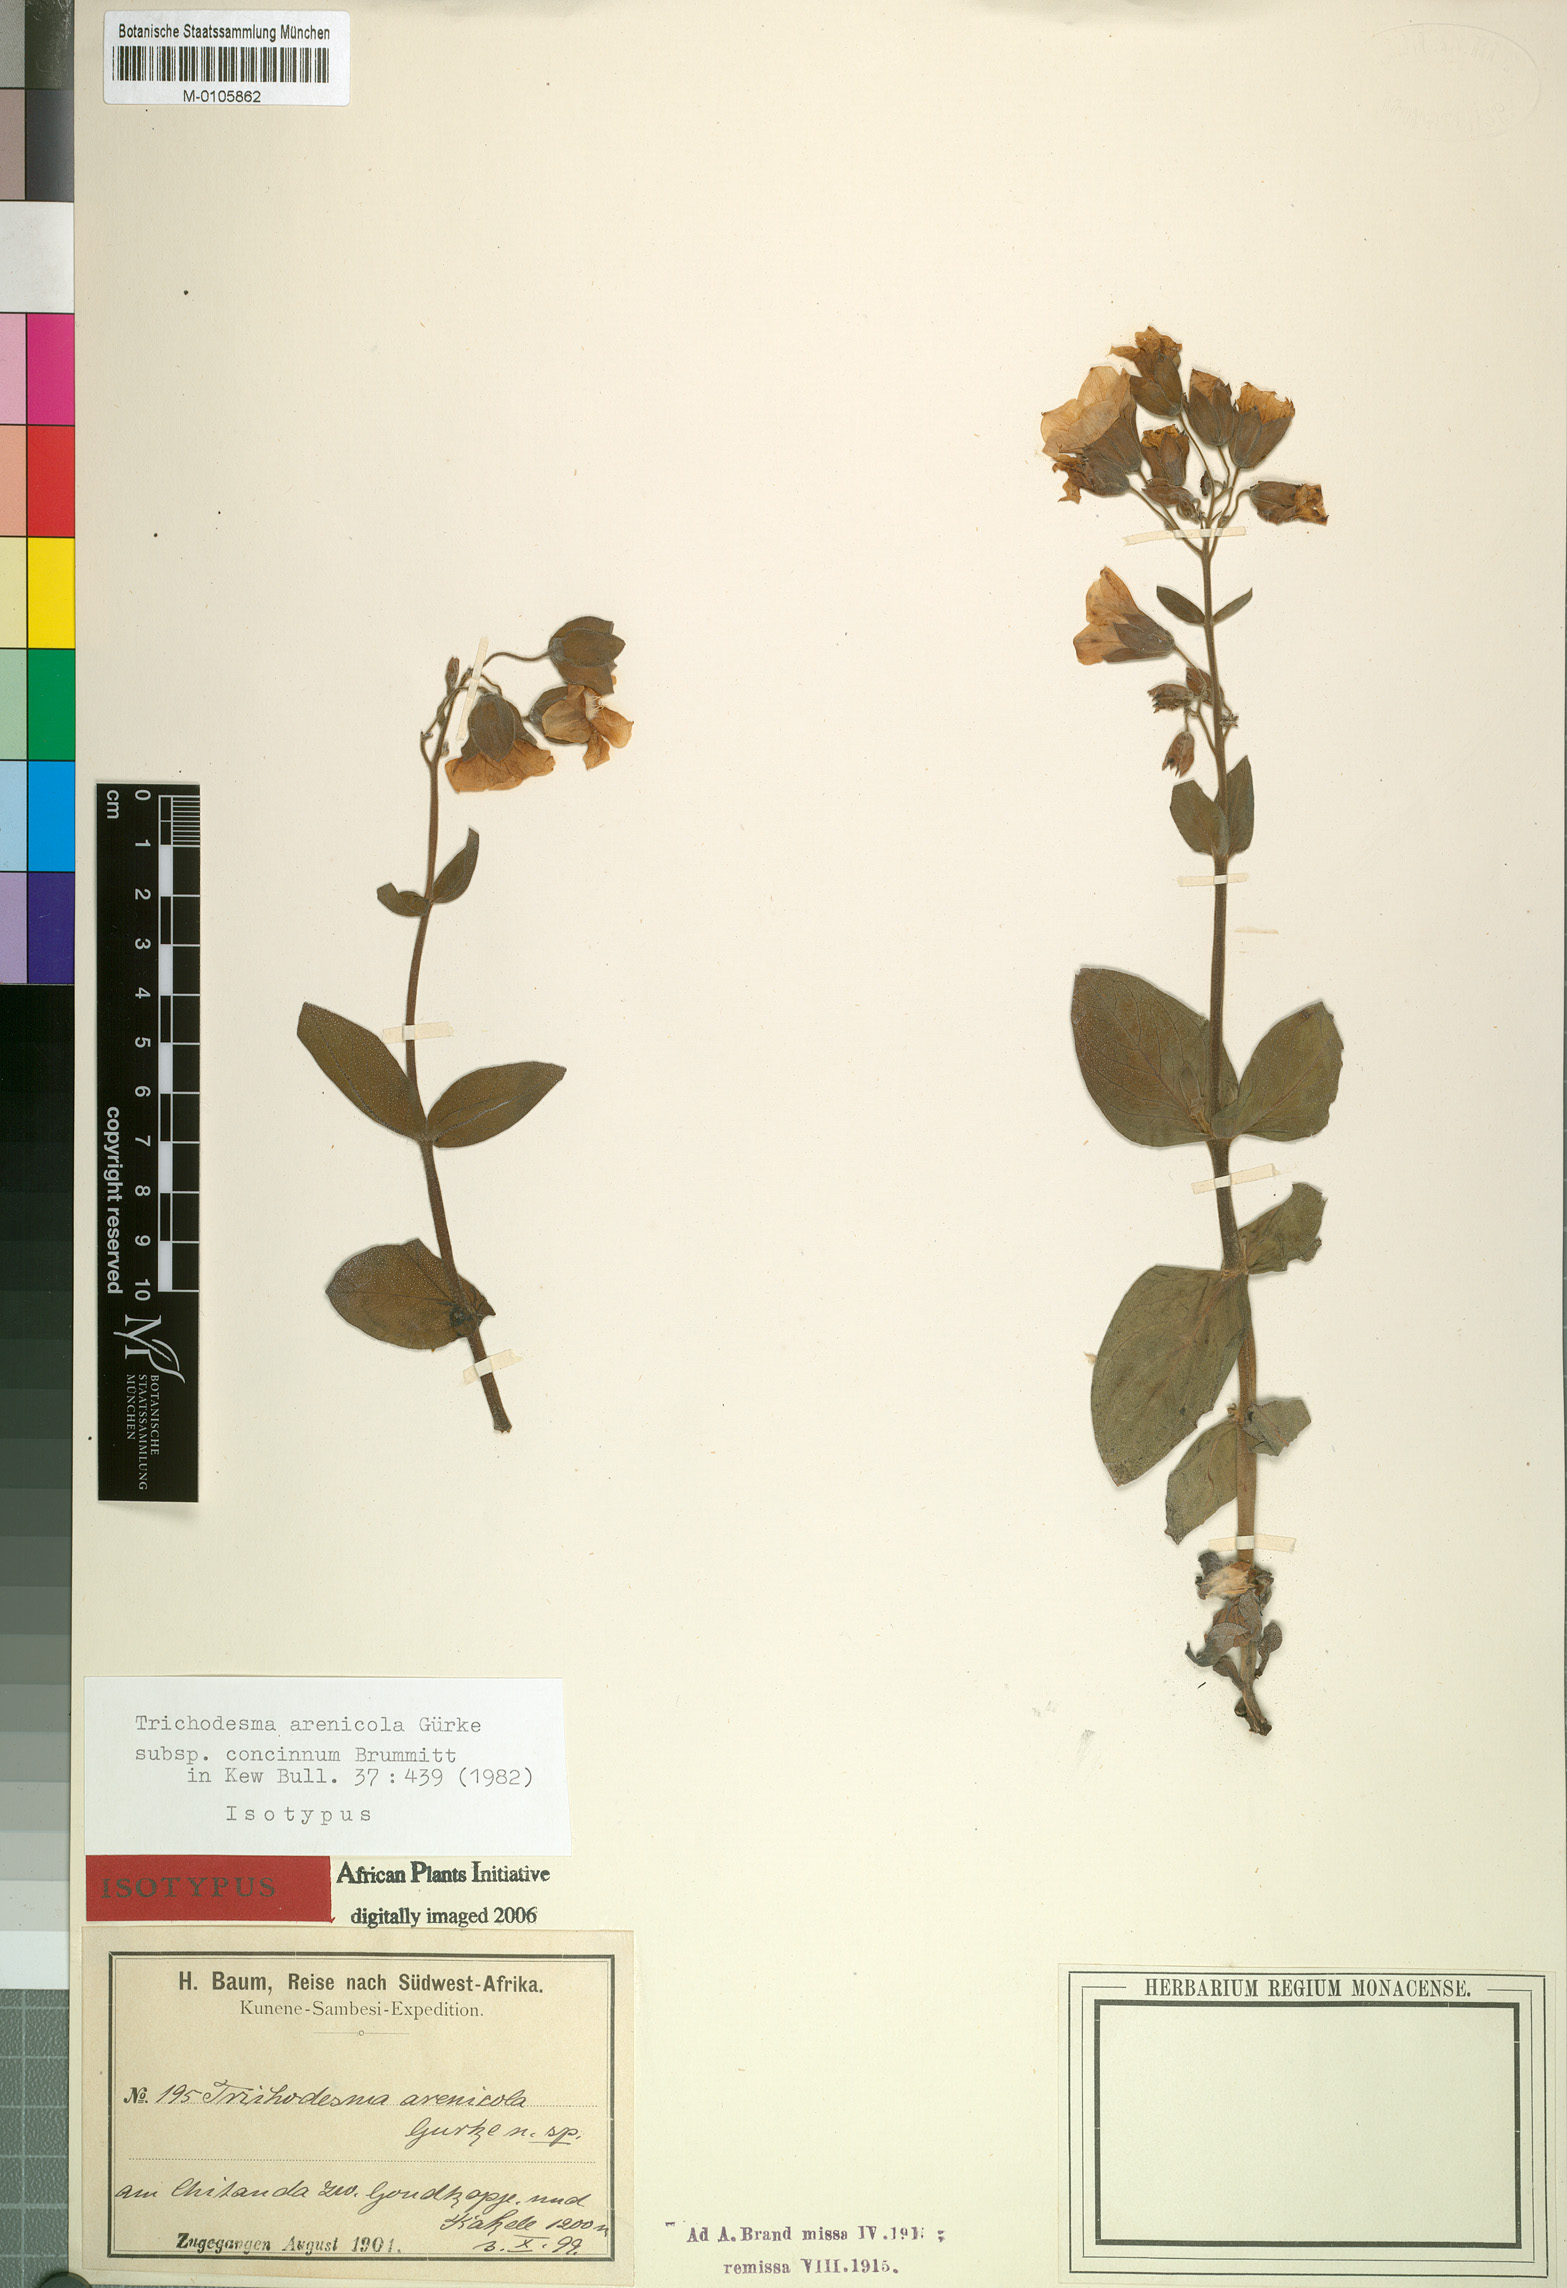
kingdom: Plantae
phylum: Tracheophyta
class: Magnoliopsida
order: Boraginales
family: Boraginaceae
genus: Trichodesma
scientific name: Trichodesma arenicola
